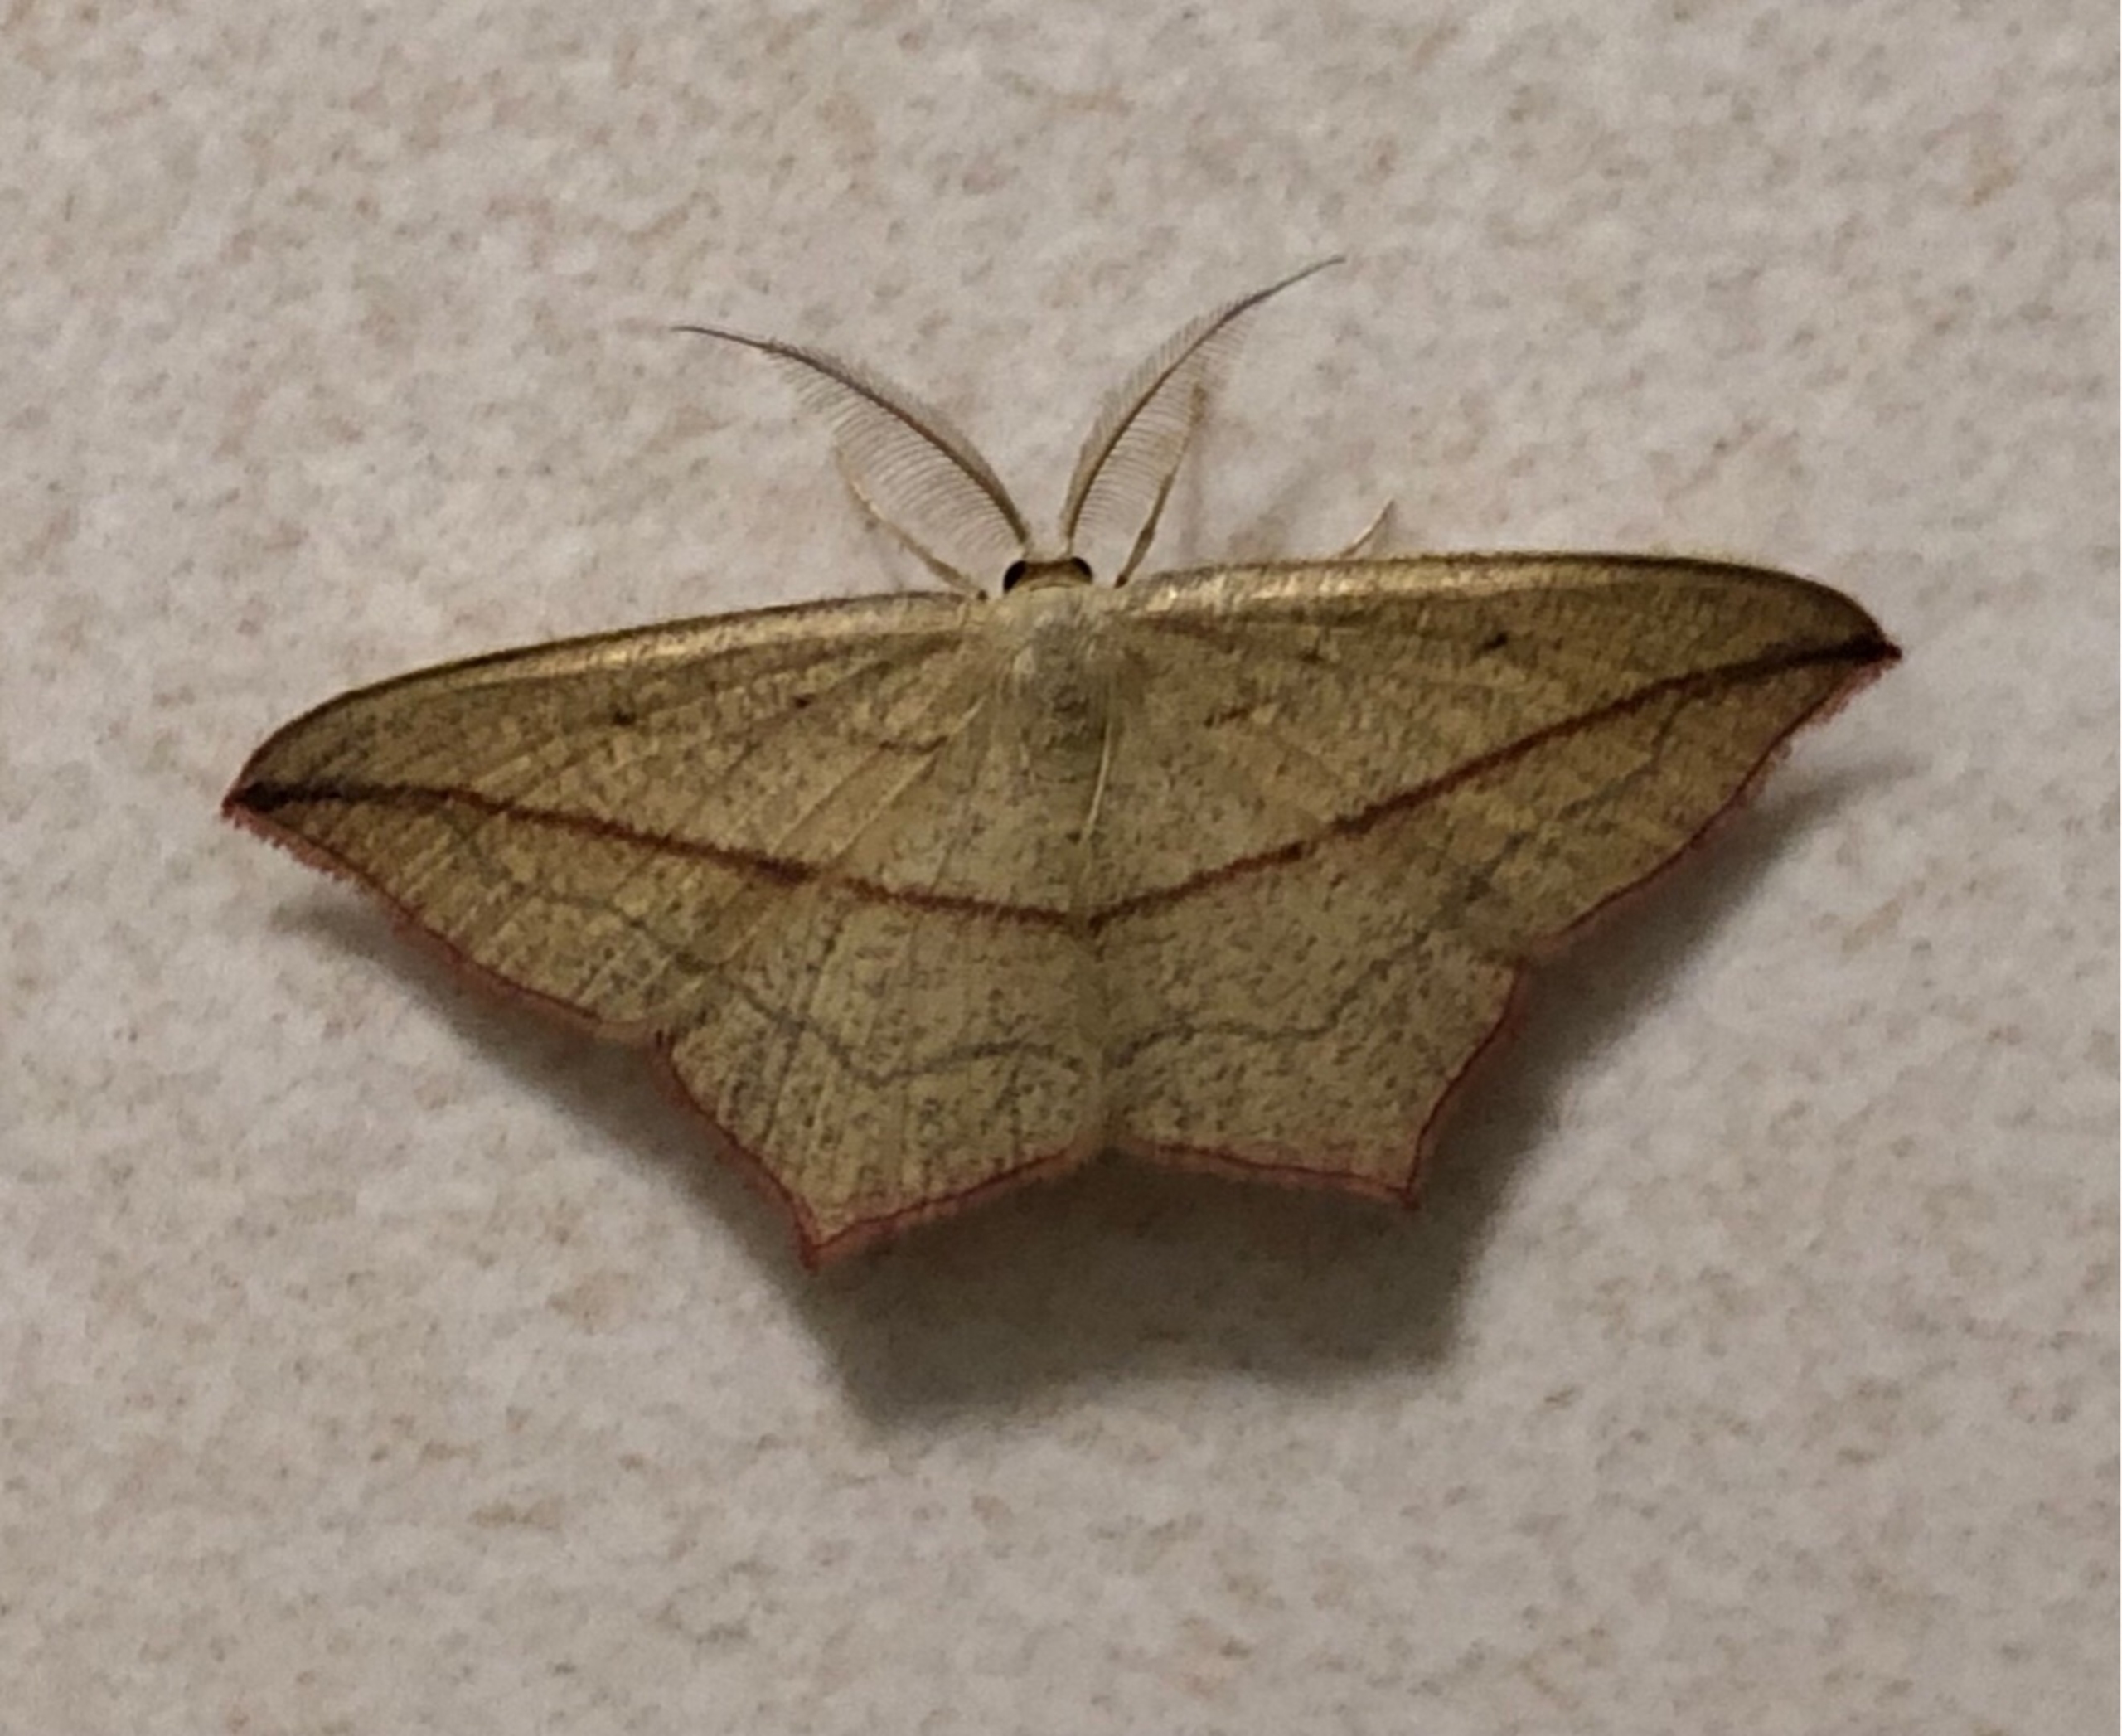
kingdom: Animalia
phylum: Arthropoda
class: Insecta
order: Lepidoptera
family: Geometridae
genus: Timandra
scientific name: Timandra comae
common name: Gul syremåler
